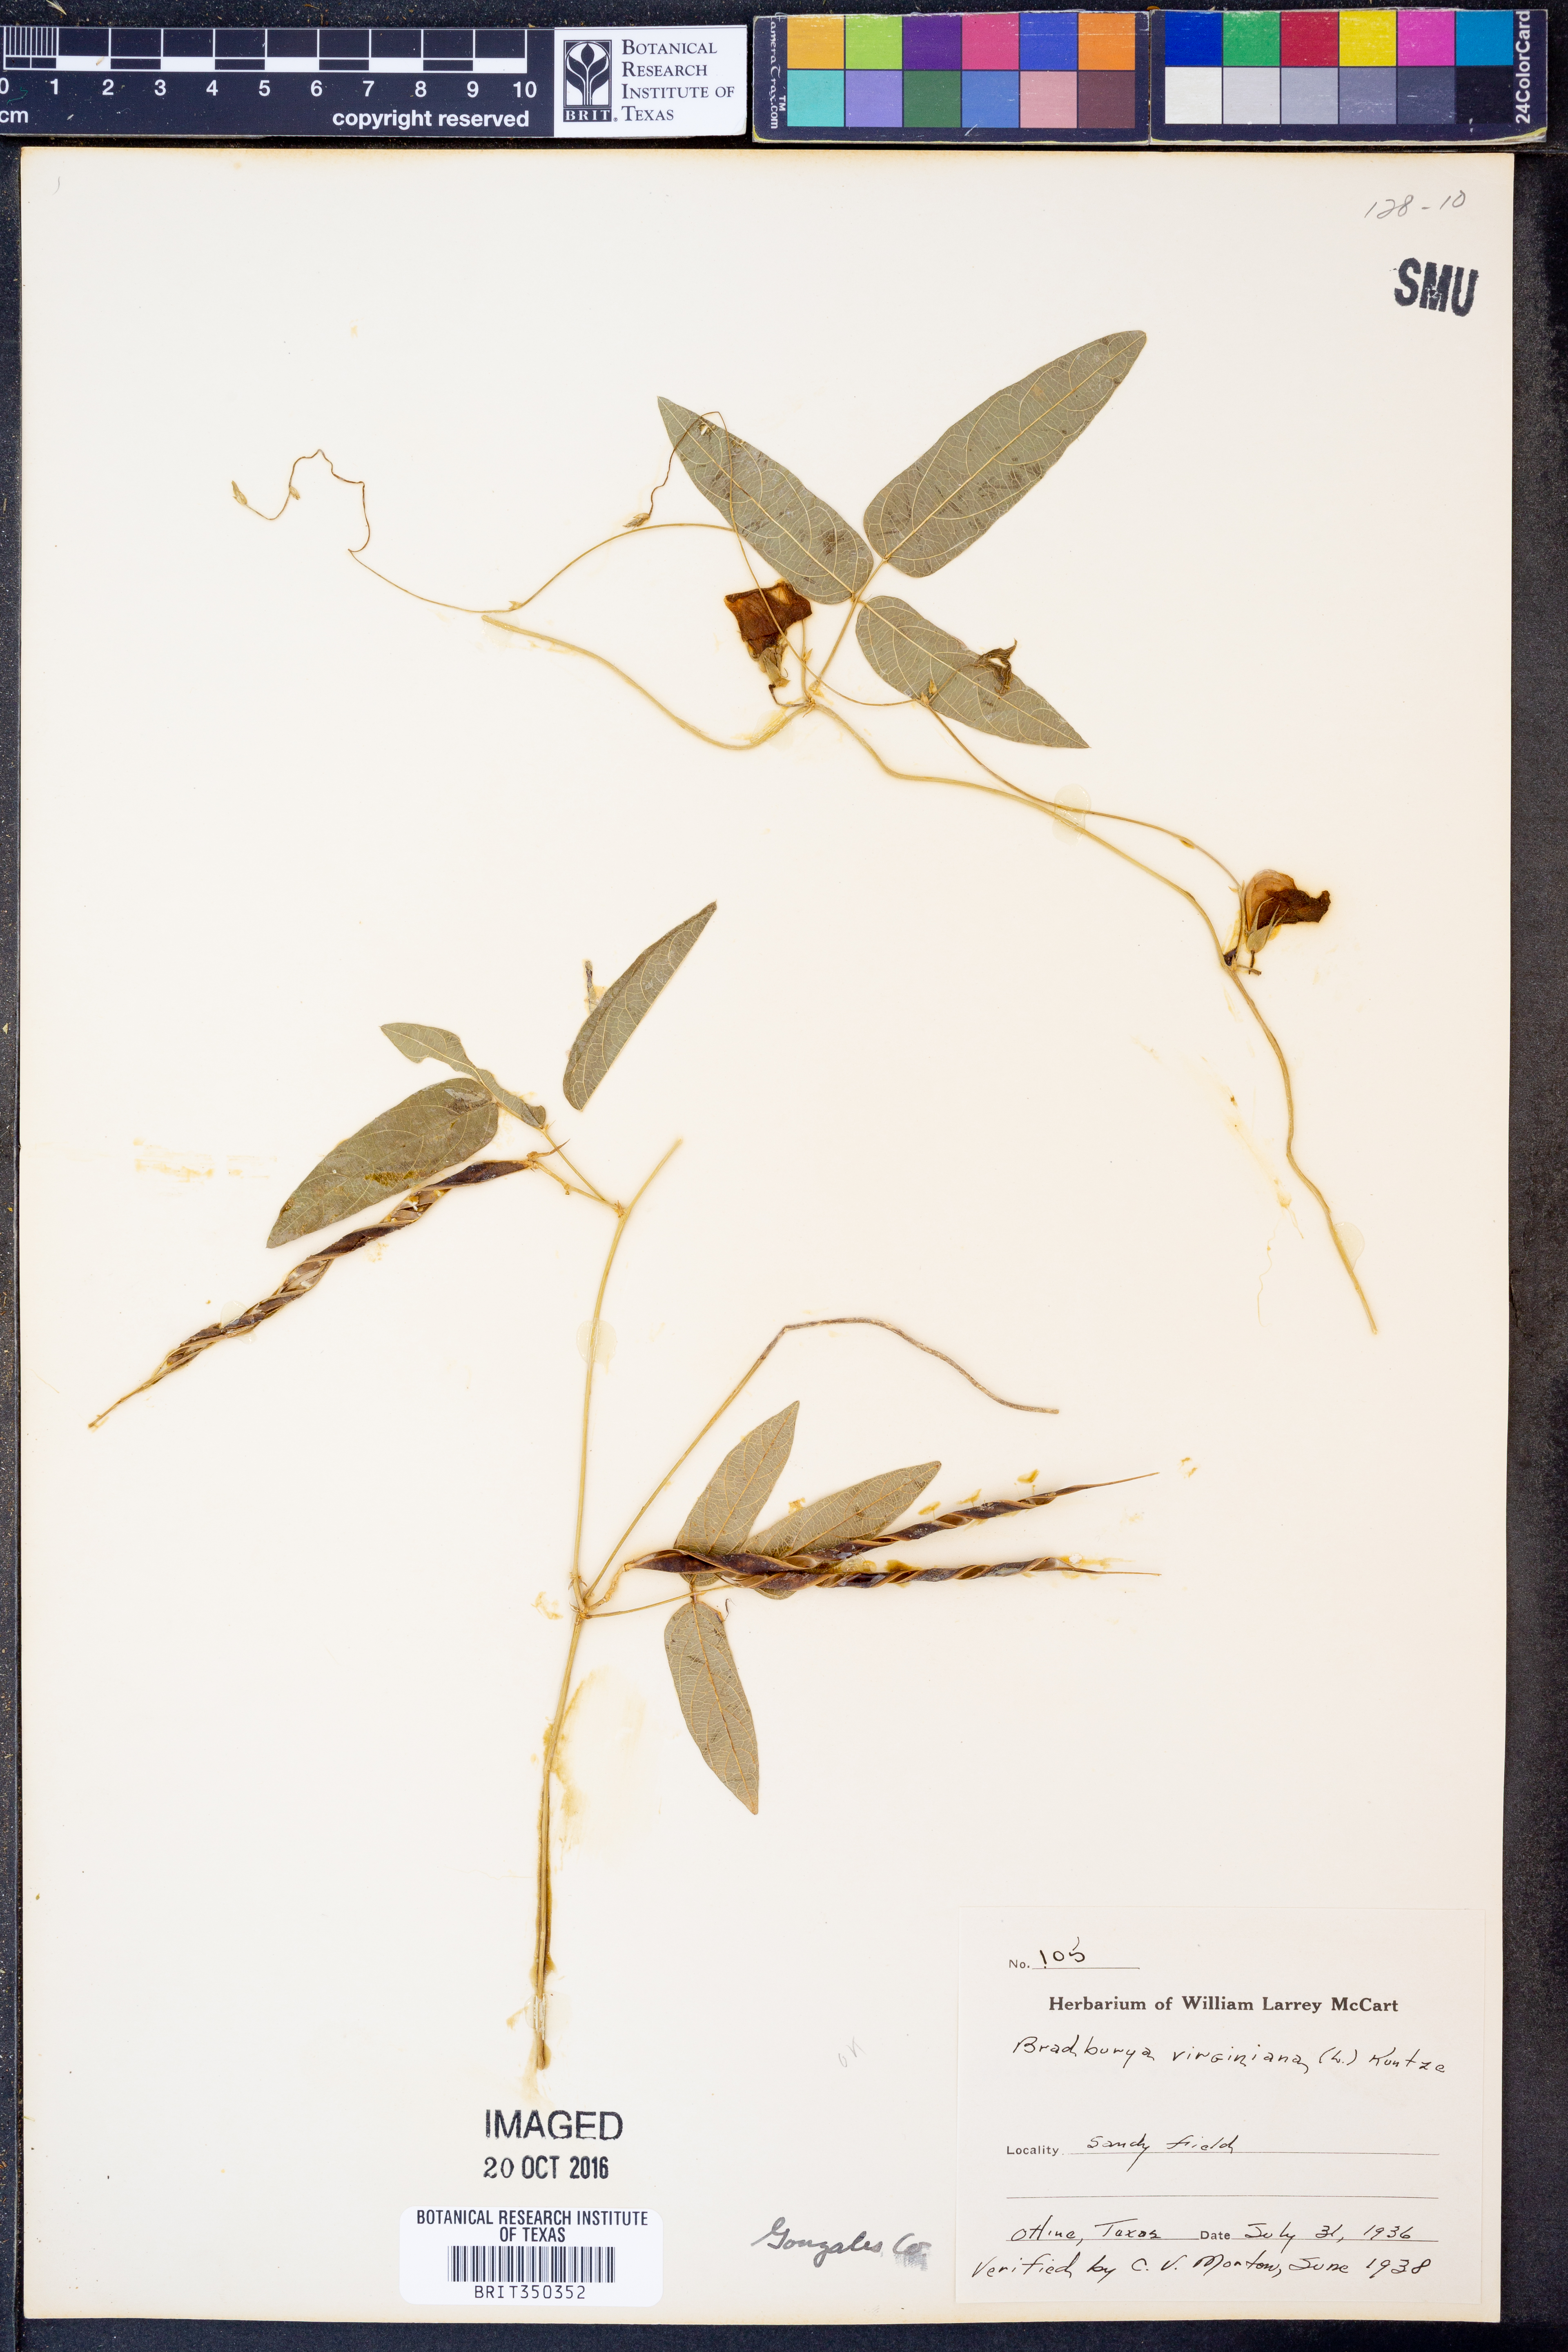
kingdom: Plantae
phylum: Tracheophyta
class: Magnoliopsida
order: Fabales
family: Fabaceae
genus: Centrosema
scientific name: Centrosema virginianum
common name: Butterfly-pea
